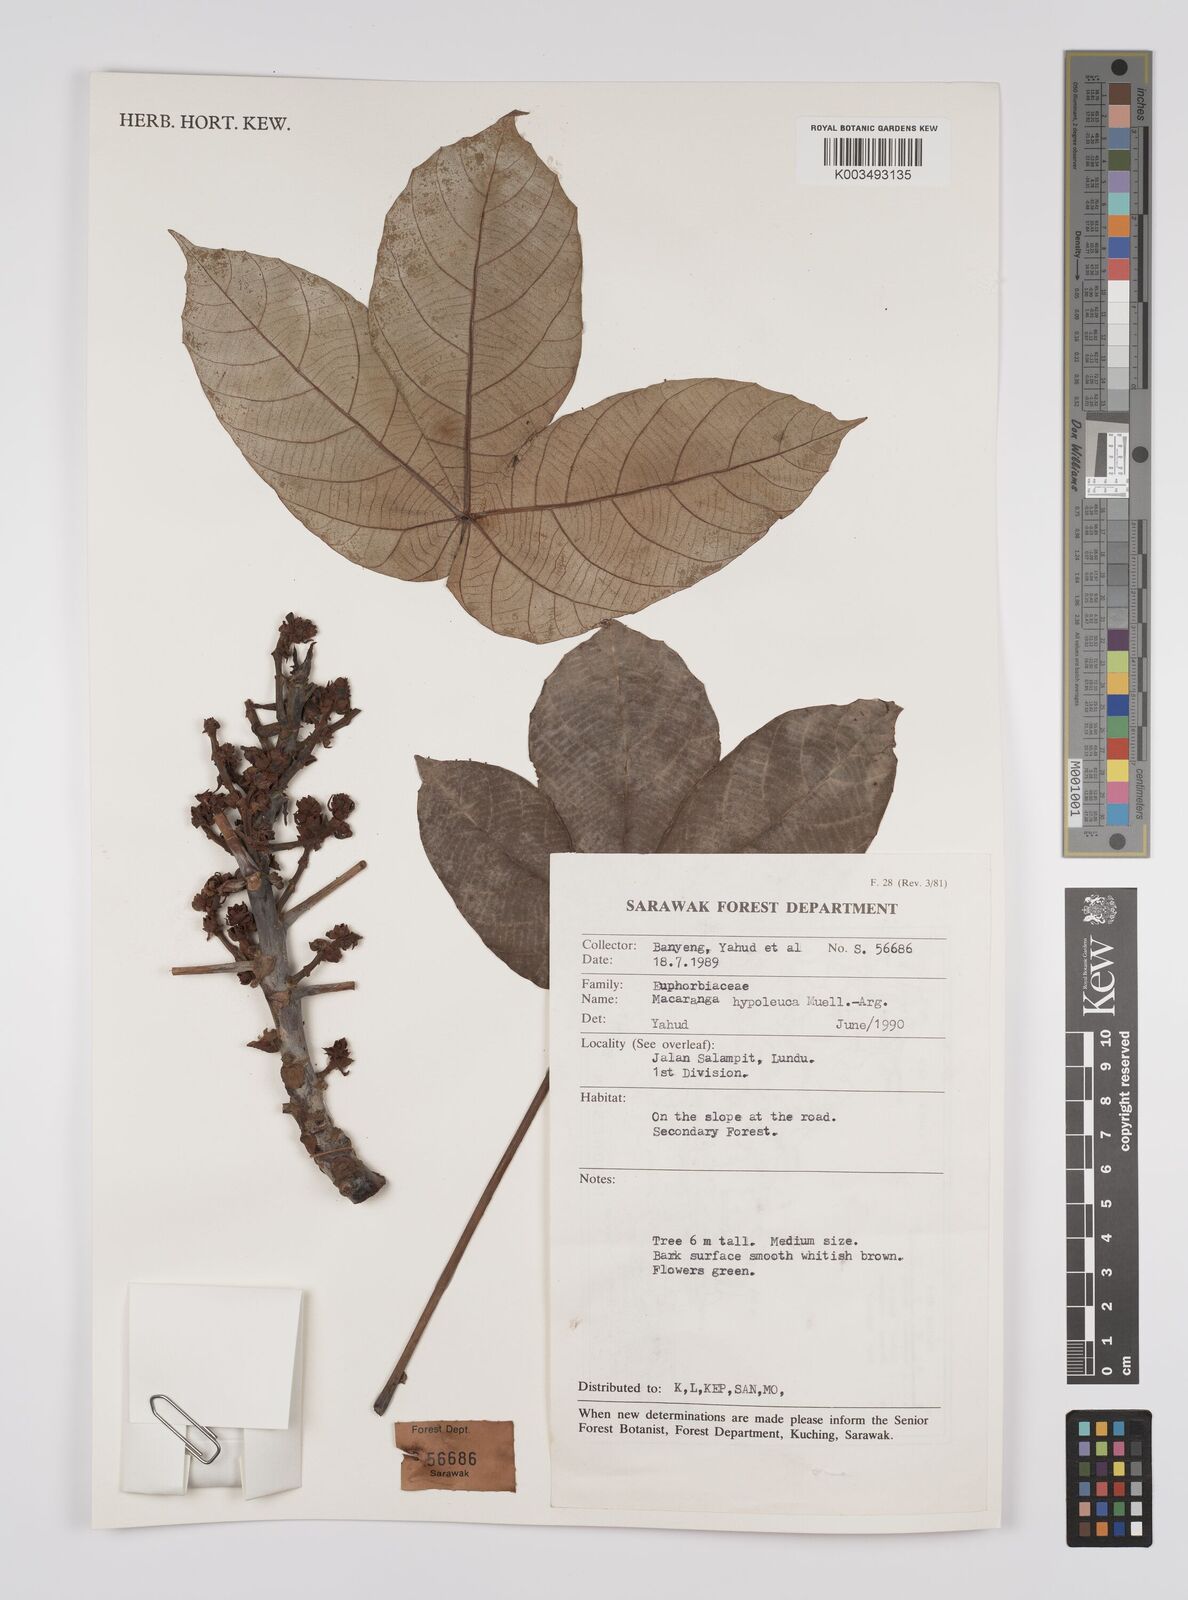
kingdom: Plantae
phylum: Tracheophyta
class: Magnoliopsida
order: Malpighiales
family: Euphorbiaceae
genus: Macaranga
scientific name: Macaranga hypoleuca
